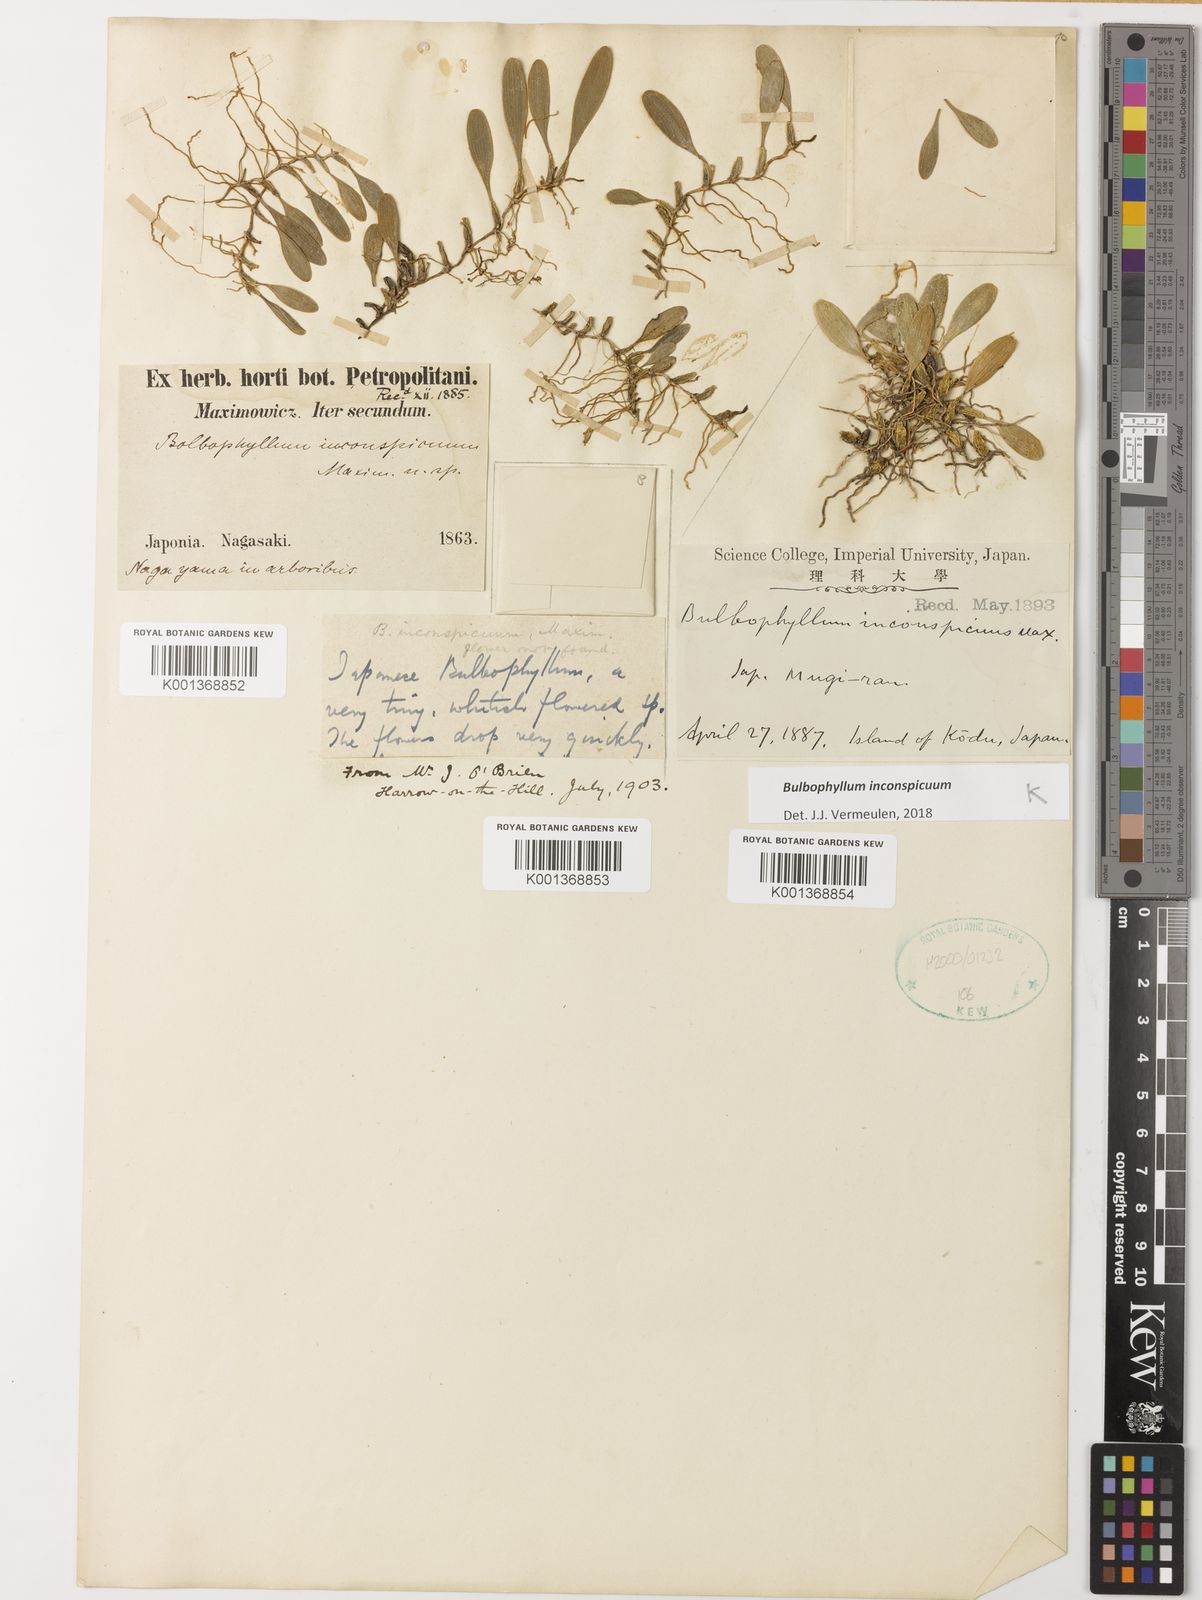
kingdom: Plantae
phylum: Tracheophyta
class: Liliopsida
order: Asparagales
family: Orchidaceae
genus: Bulbophyllum
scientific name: Bulbophyllum inconspicuum
